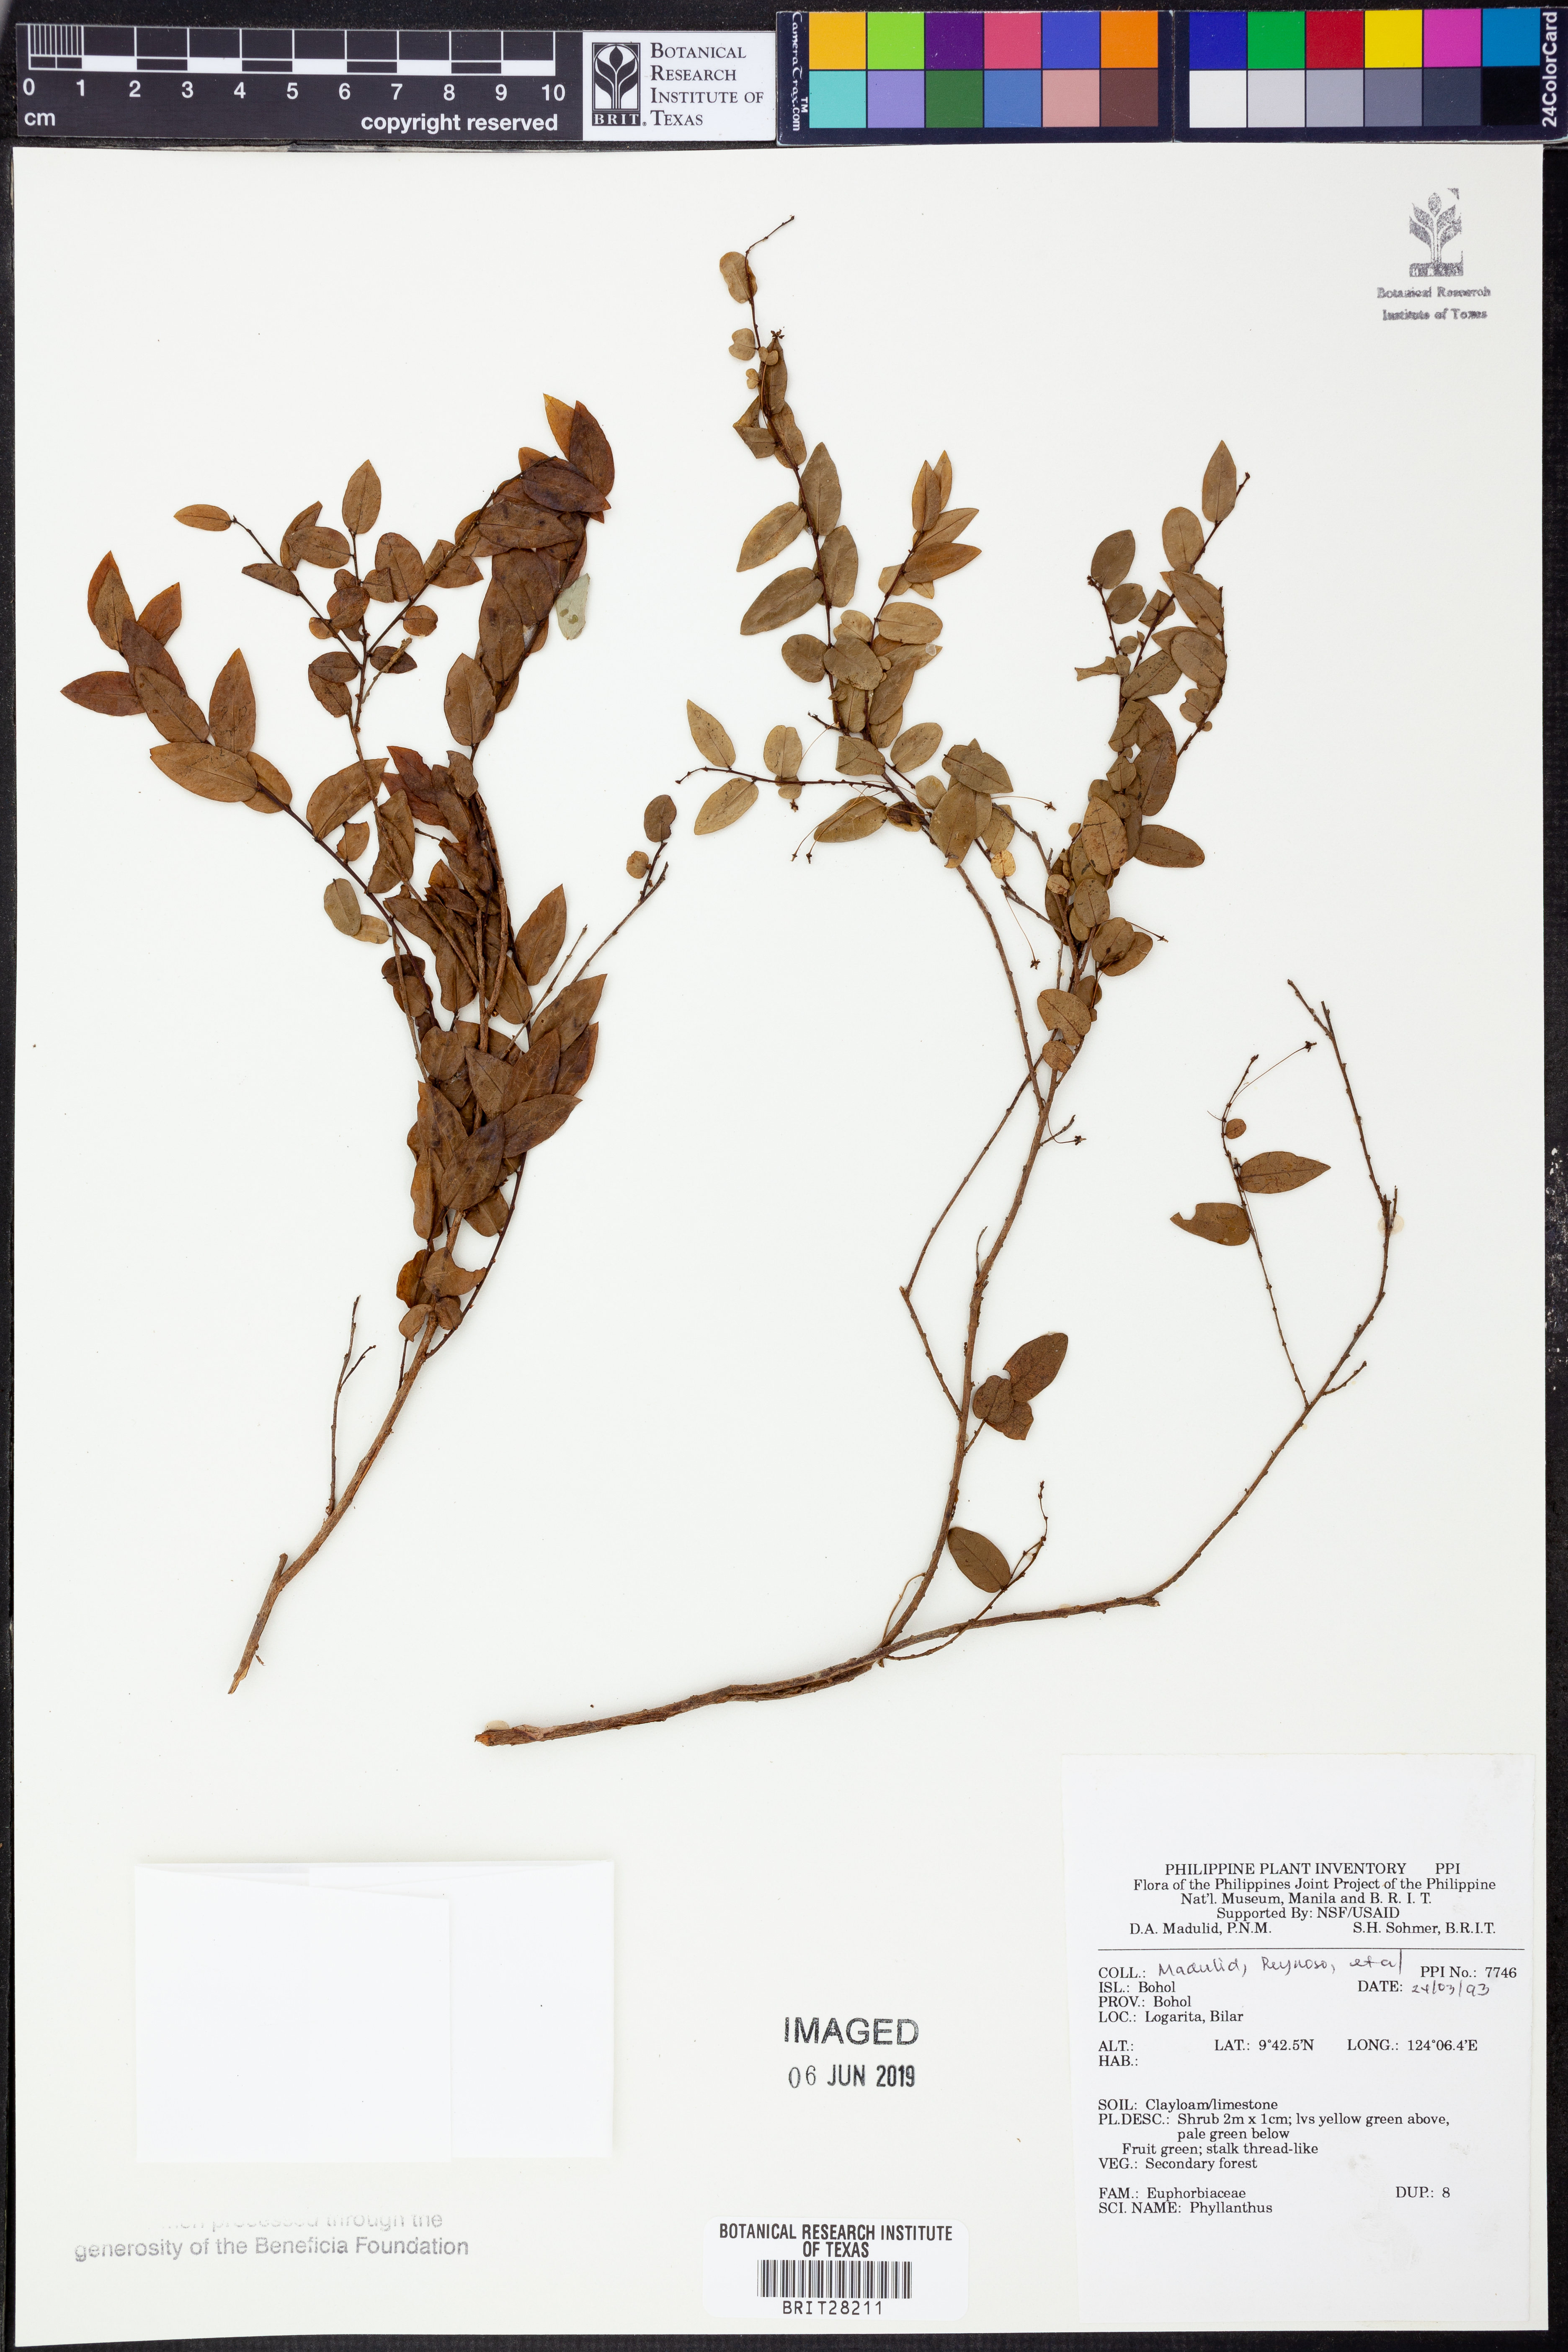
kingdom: Plantae
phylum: Tracheophyta
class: Magnoliopsida
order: Malpighiales
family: Phyllanthaceae
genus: Phyllanthus
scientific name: Phyllanthus
